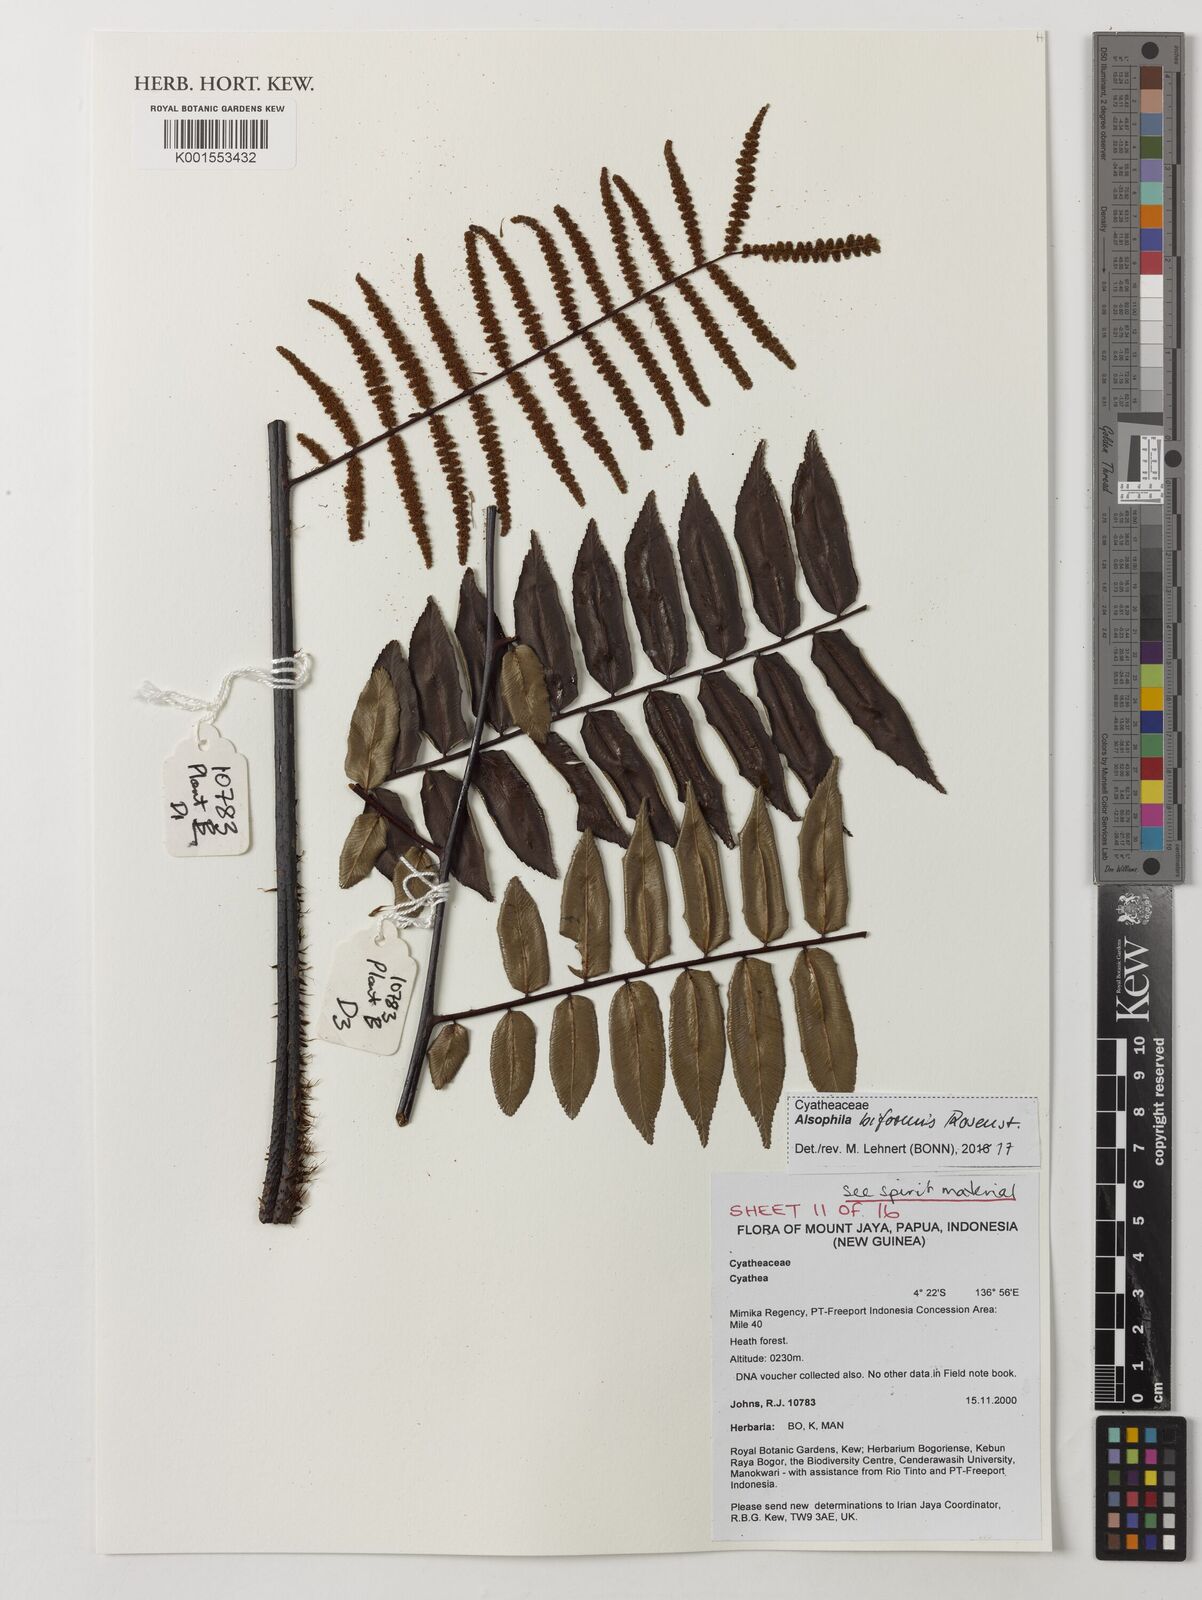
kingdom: Plantae
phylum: Tracheophyta
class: Polypodiopsida
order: Cyatheales
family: Cyatheaceae
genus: Gymnosphaera
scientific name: Gymnosphaera biformis
